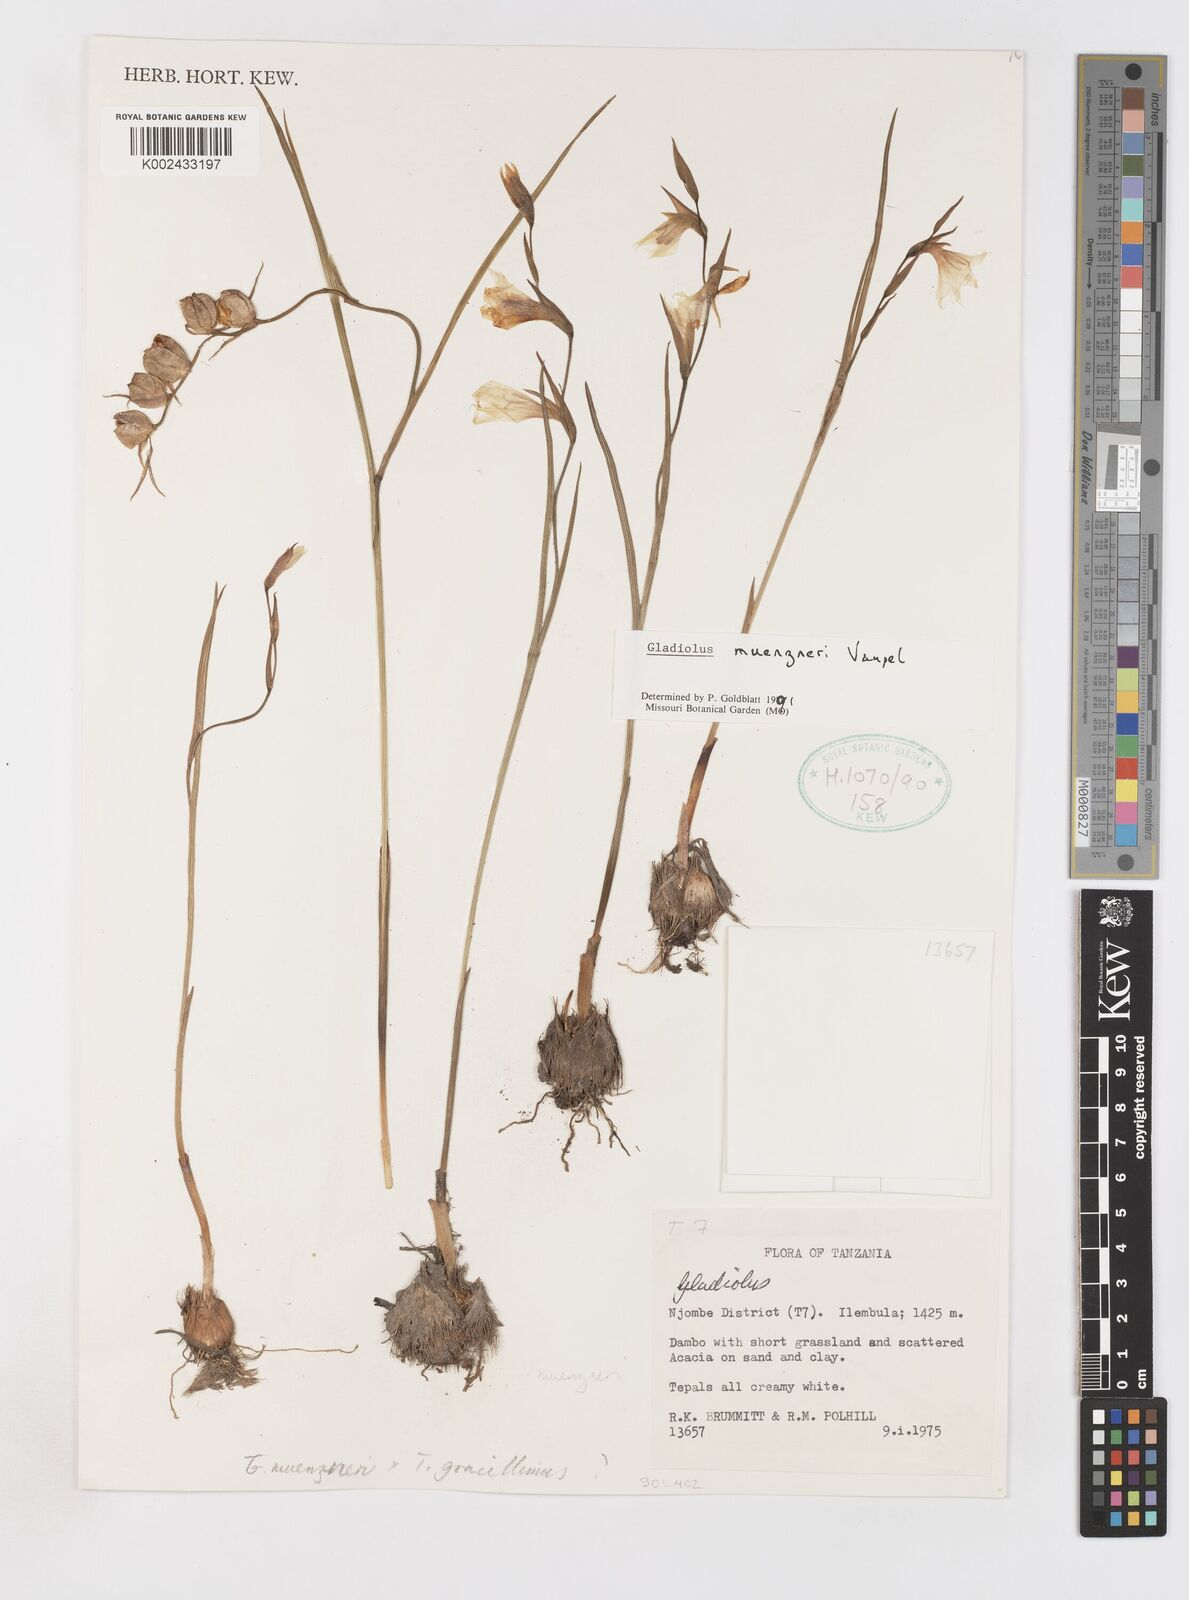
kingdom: Plantae
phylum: Tracheophyta
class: Liliopsida
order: Asparagales
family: Iridaceae
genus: Gladiolus
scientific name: Gladiolus muenzneri
